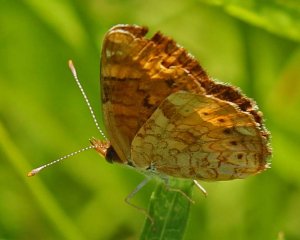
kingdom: Animalia
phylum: Arthropoda
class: Insecta
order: Lepidoptera
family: Nymphalidae
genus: Phyciodes
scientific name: Phyciodes tharos
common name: Northern Crescent
